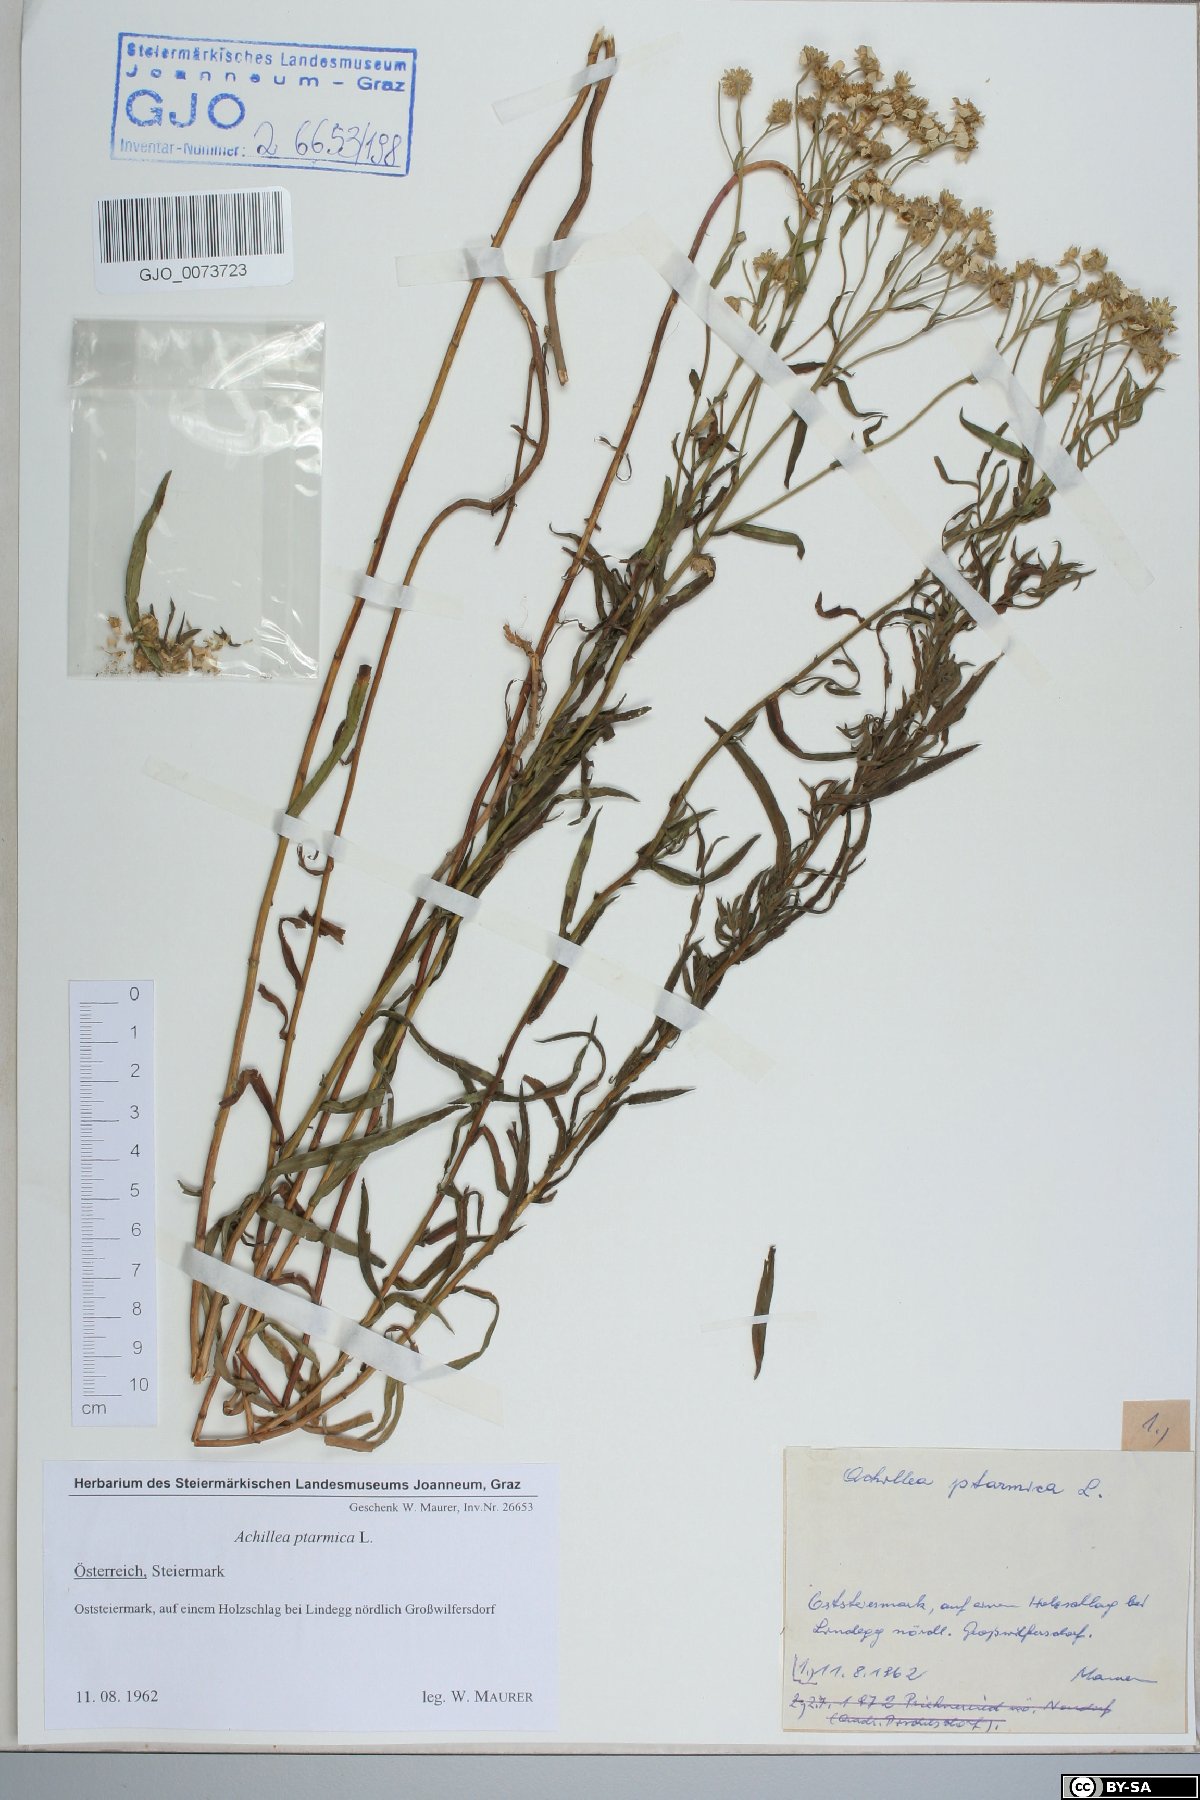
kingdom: Plantae
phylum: Tracheophyta
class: Magnoliopsida
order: Asterales
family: Asteraceae
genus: Achillea
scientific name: Achillea ptarmica
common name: Sneezeweed
